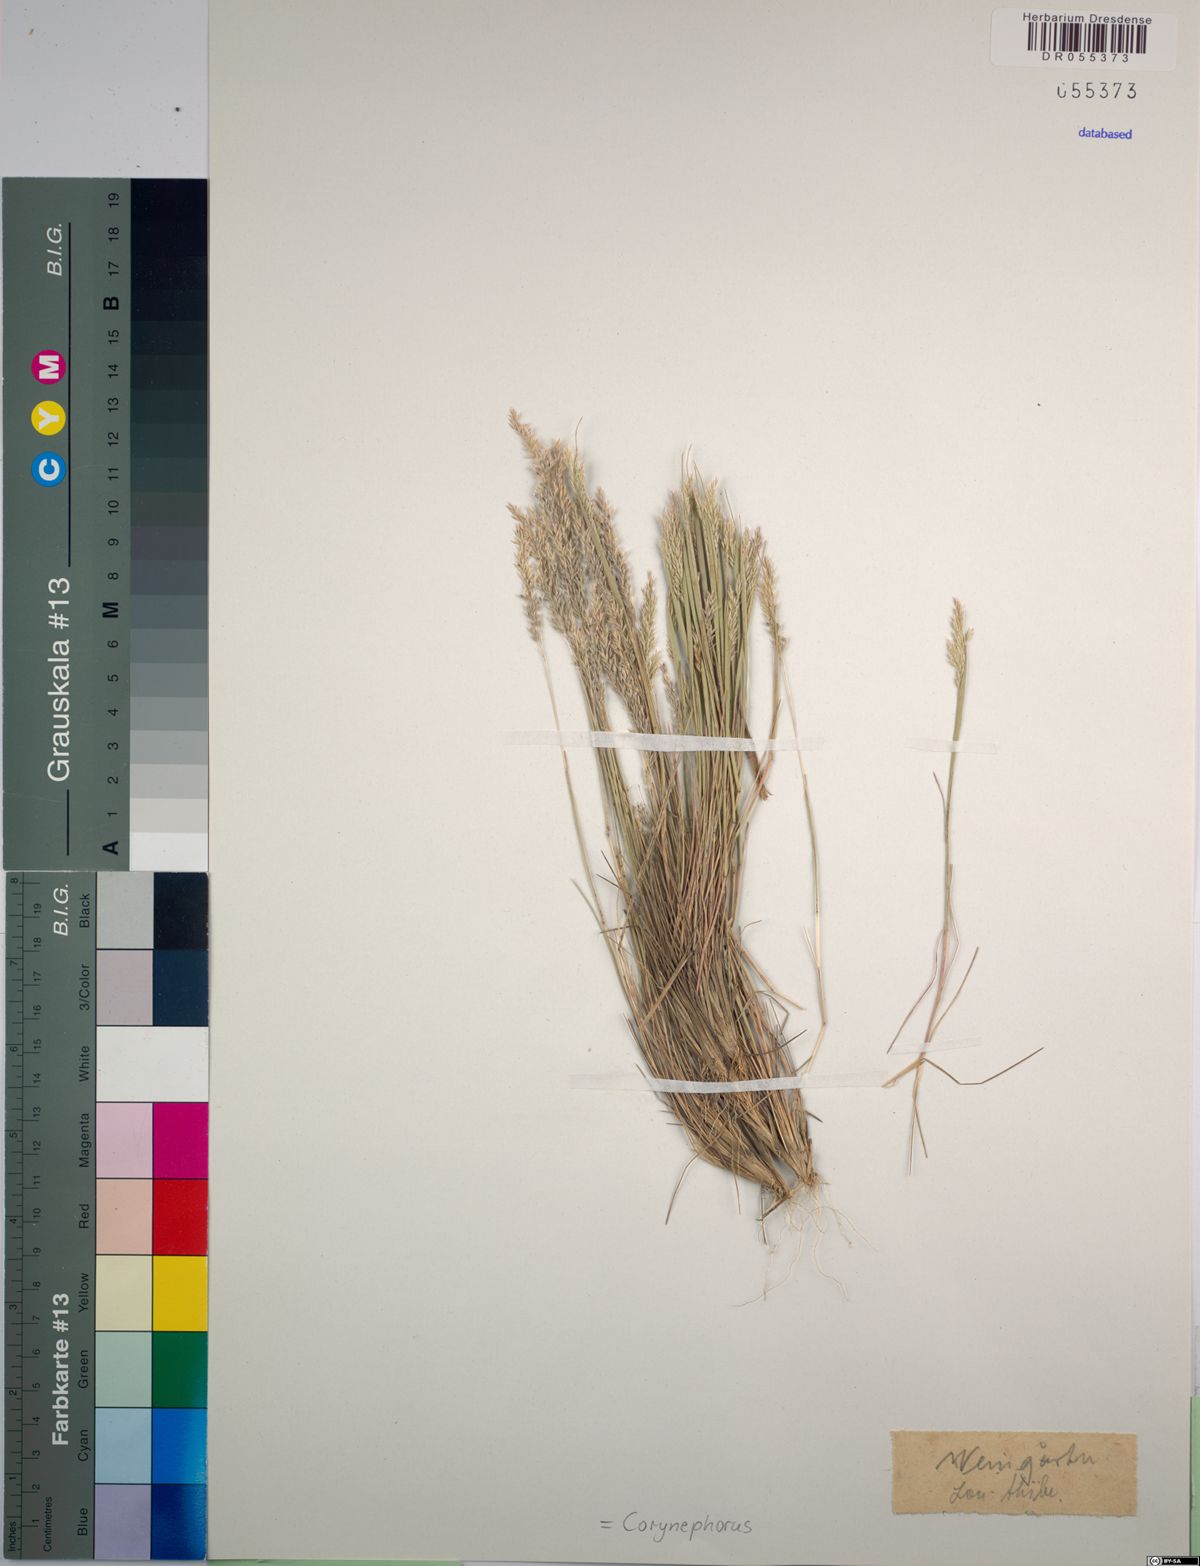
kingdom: Plantae
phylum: Tracheophyta
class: Liliopsida
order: Poales
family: Poaceae
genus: Corynephorus
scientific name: Corynephorus
